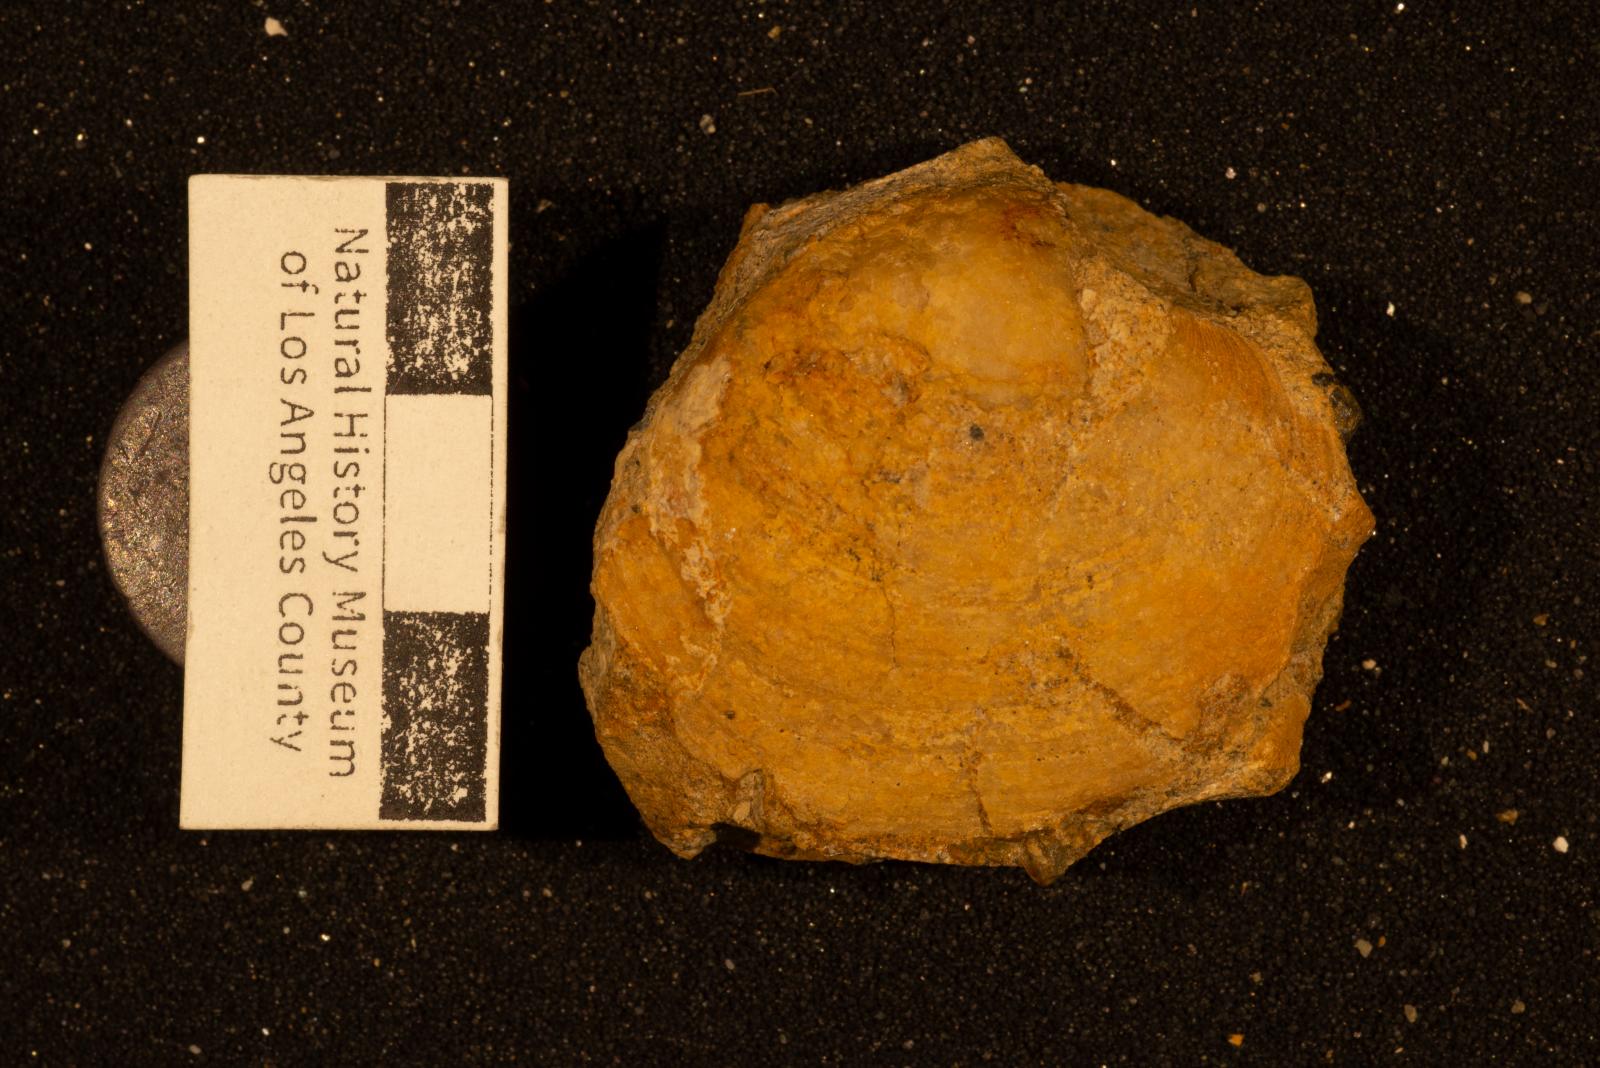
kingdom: Animalia
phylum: Mollusca
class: Bivalvia
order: Cardiida
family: Tancrediidae
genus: Meekia
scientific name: Meekia sella
